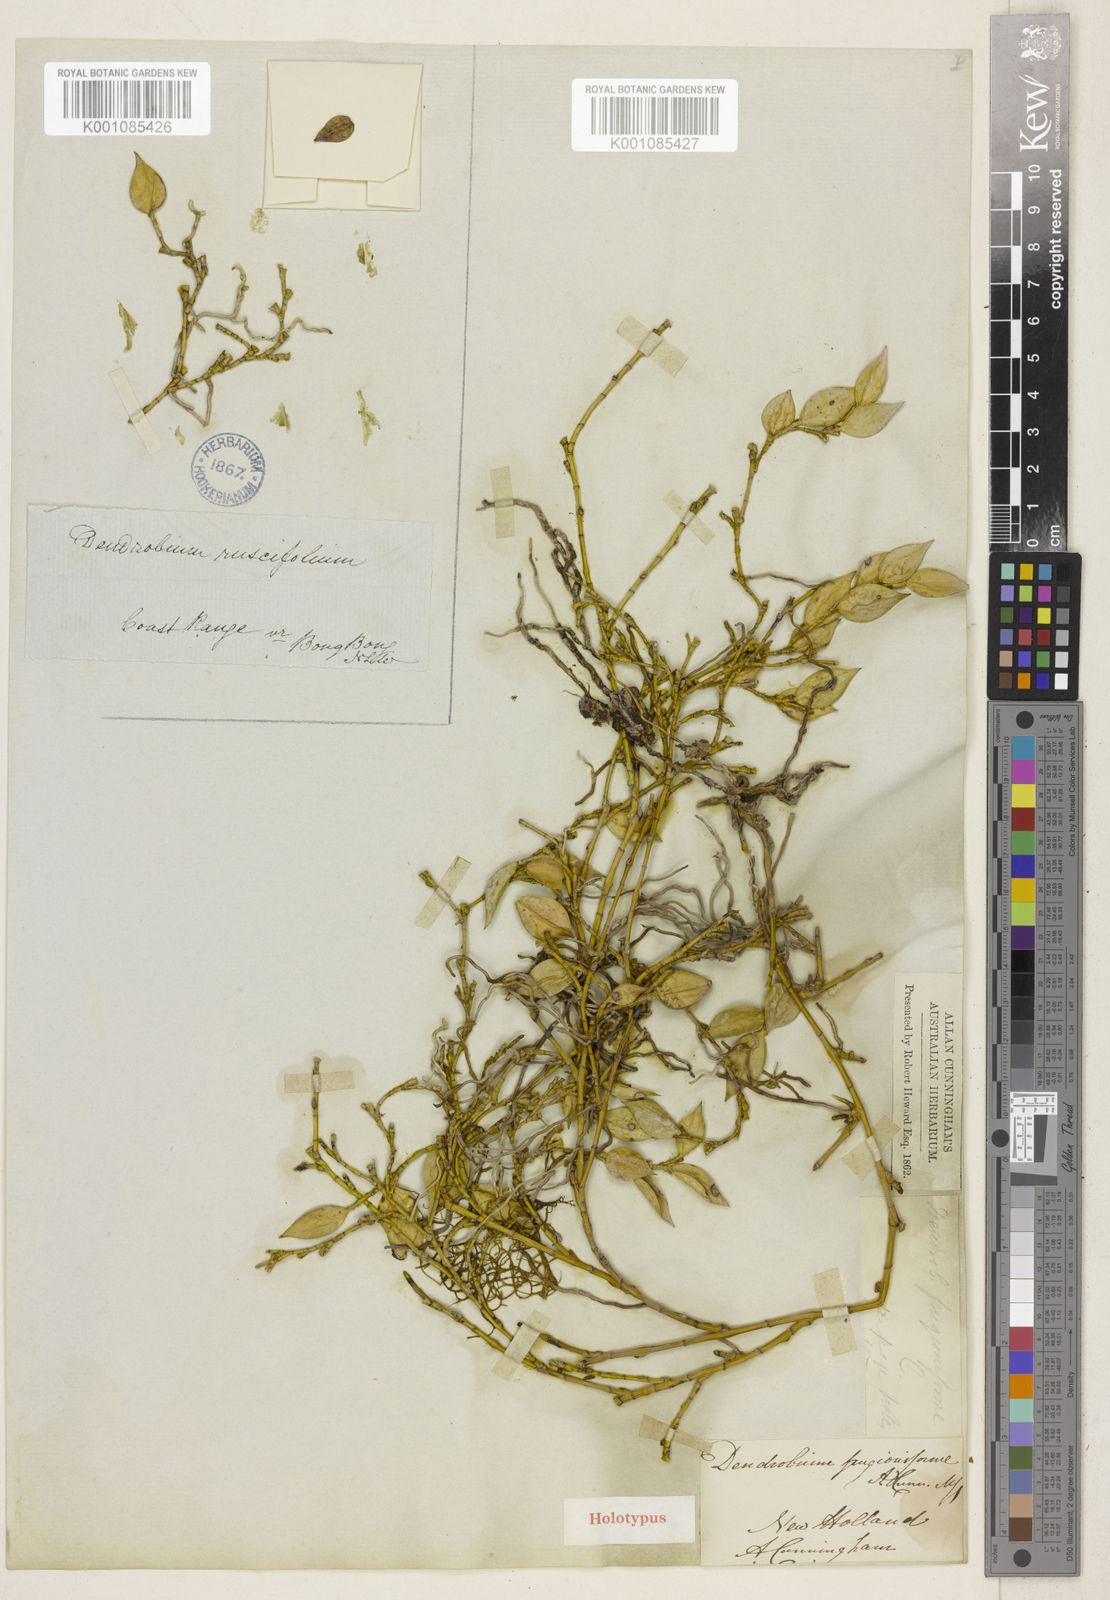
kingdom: Plantae
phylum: Tracheophyta
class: Liliopsida
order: Asparagales
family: Orchidaceae
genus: Dendrobium
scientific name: Dendrobium pugioniforme
